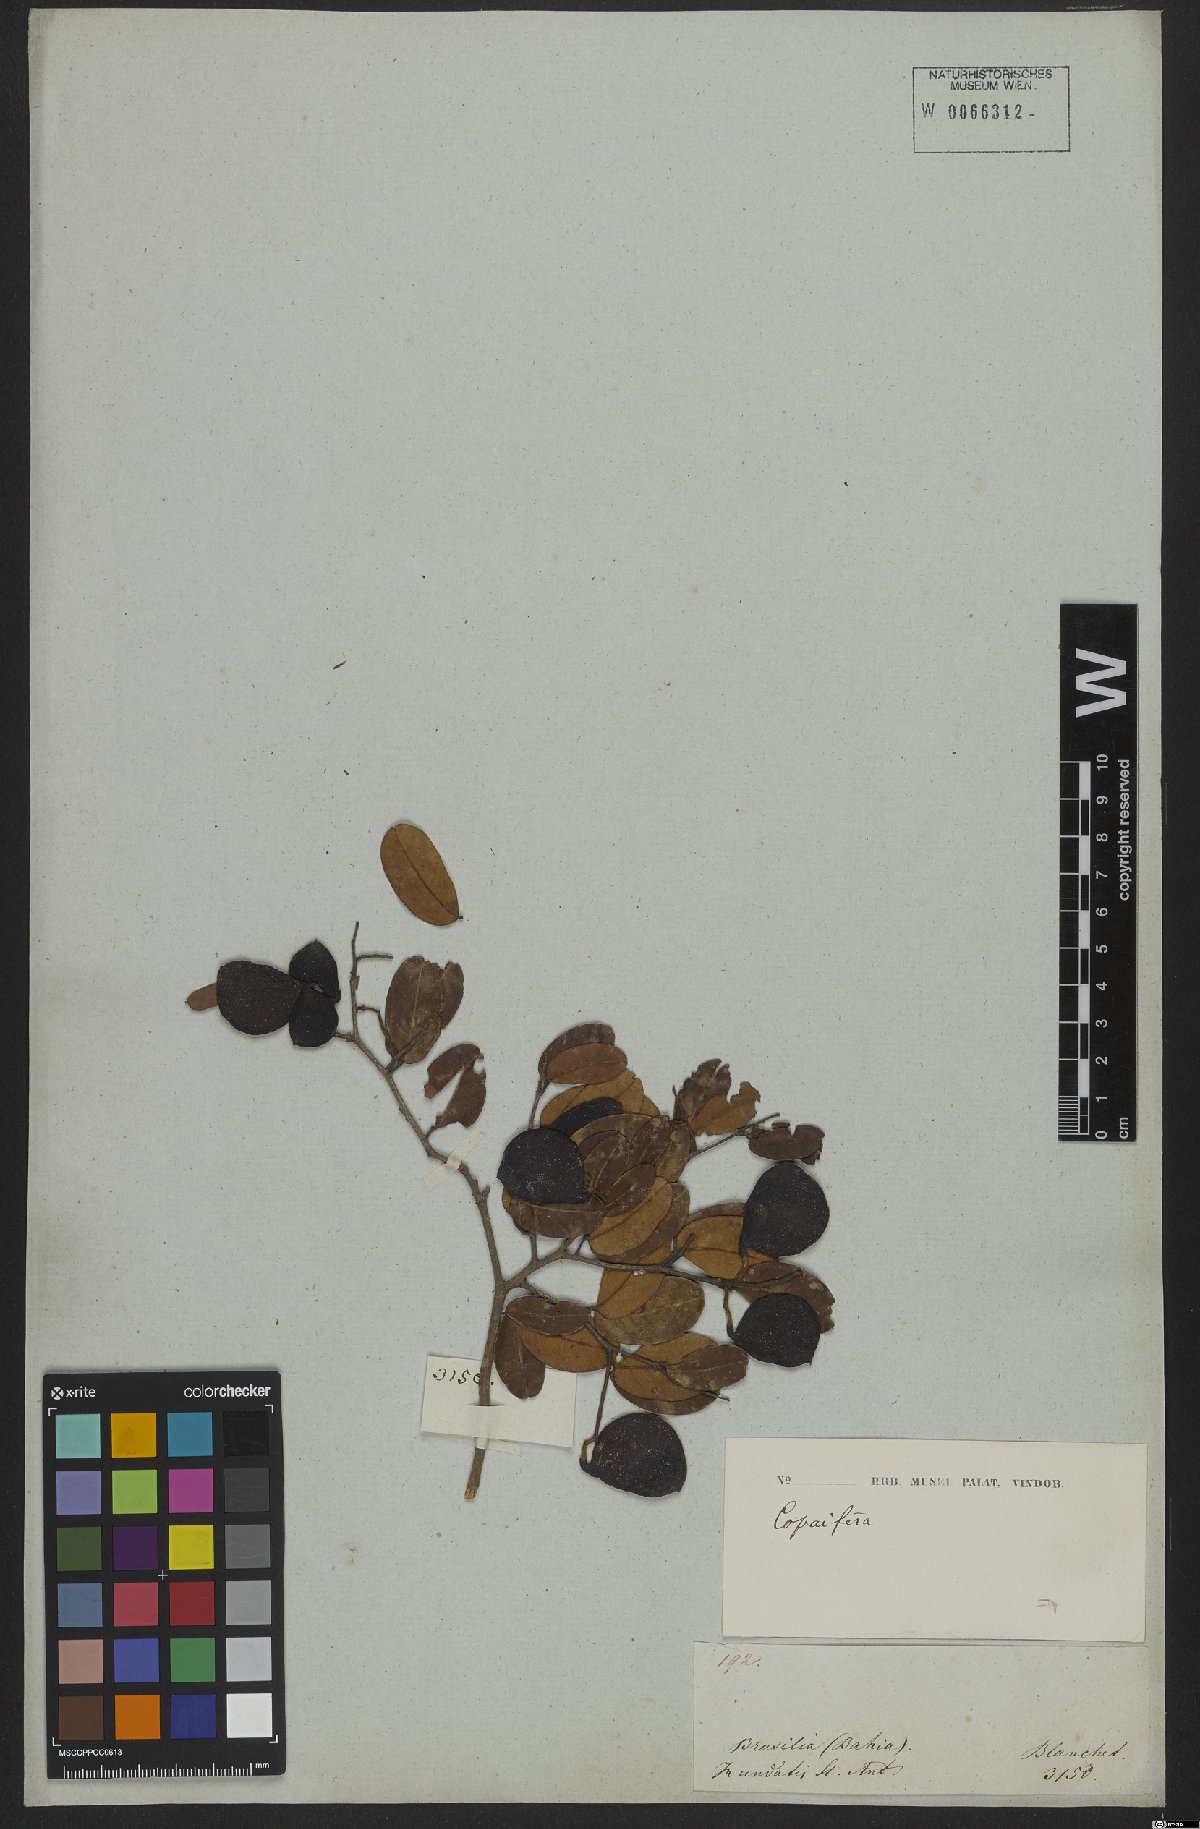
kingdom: Plantae
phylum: Tracheophyta
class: Magnoliopsida
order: Fabales
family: Fabaceae
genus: Copaifera
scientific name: Copaifera
